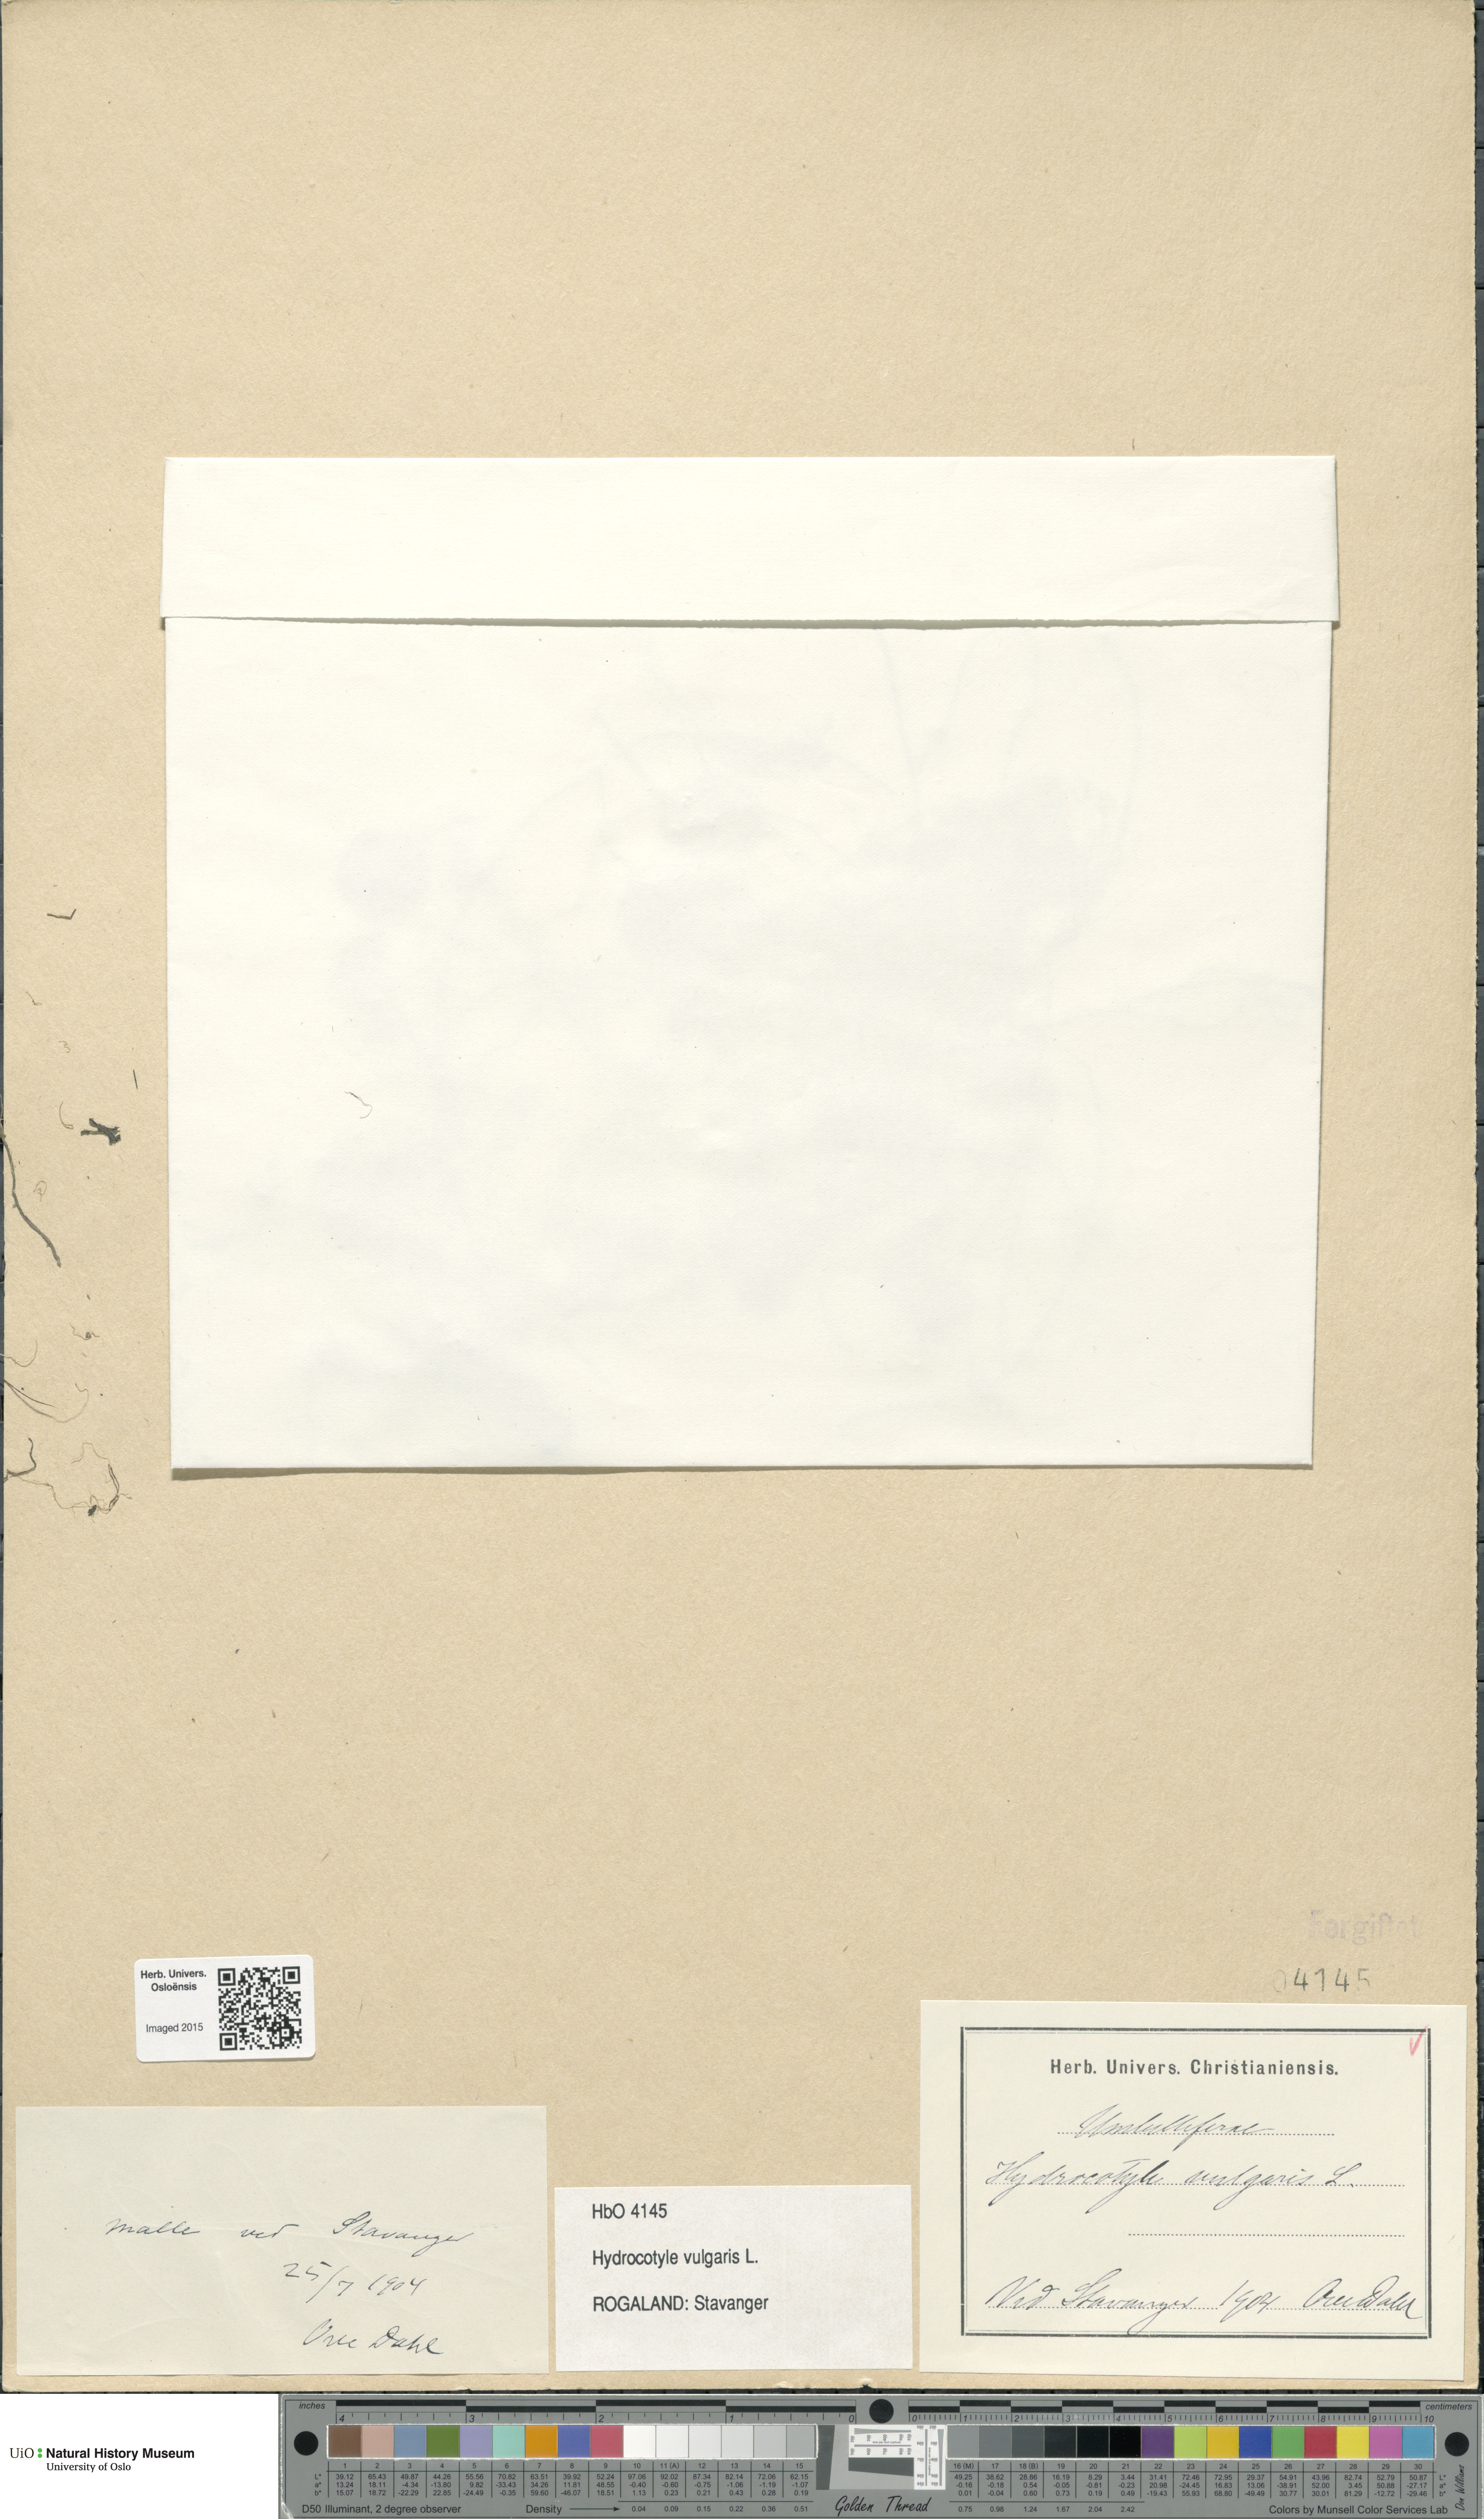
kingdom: Plantae
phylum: Tracheophyta
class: Magnoliopsida
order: Apiales
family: Araliaceae
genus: Hydrocotyle
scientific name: Hydrocotyle vulgaris
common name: Marsh pennywort
